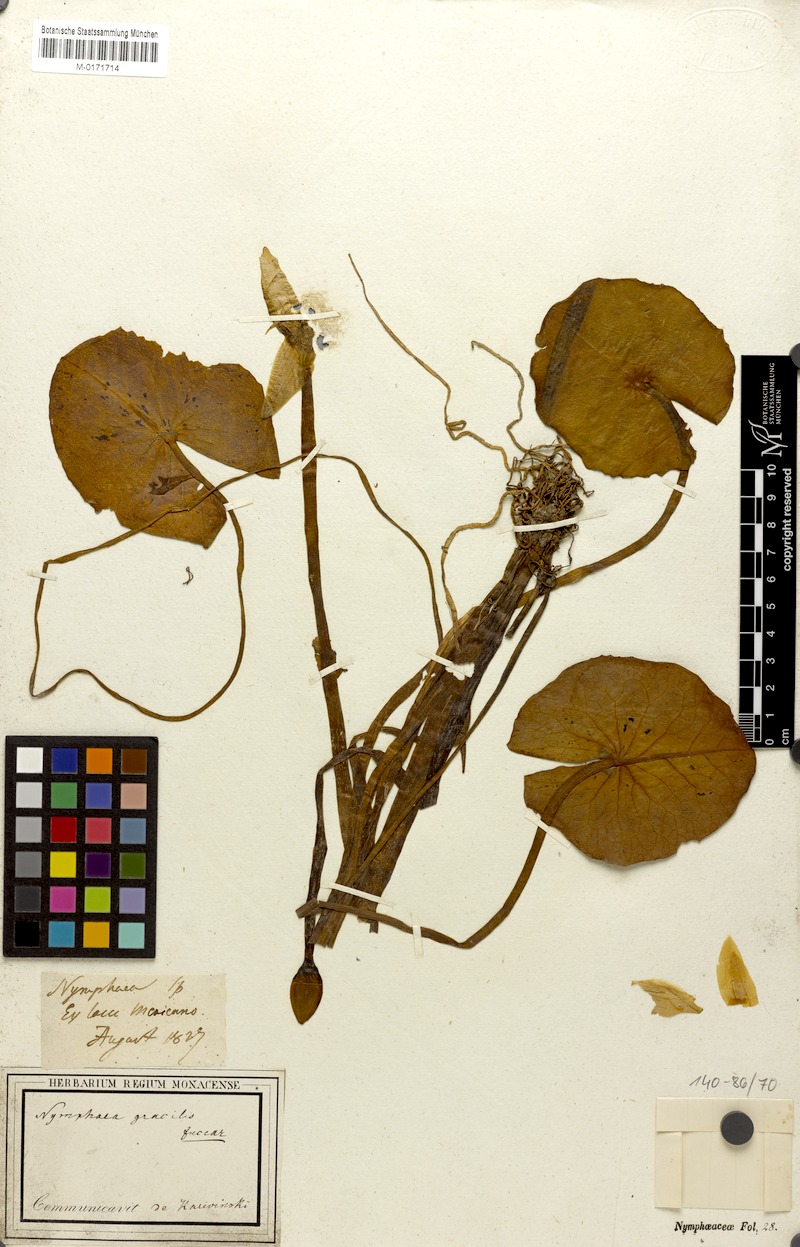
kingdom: Plantae
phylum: Tracheophyta
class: Magnoliopsida
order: Nymphaeales
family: Nymphaeaceae
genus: Nymphaea
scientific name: Nymphaea gracilis
